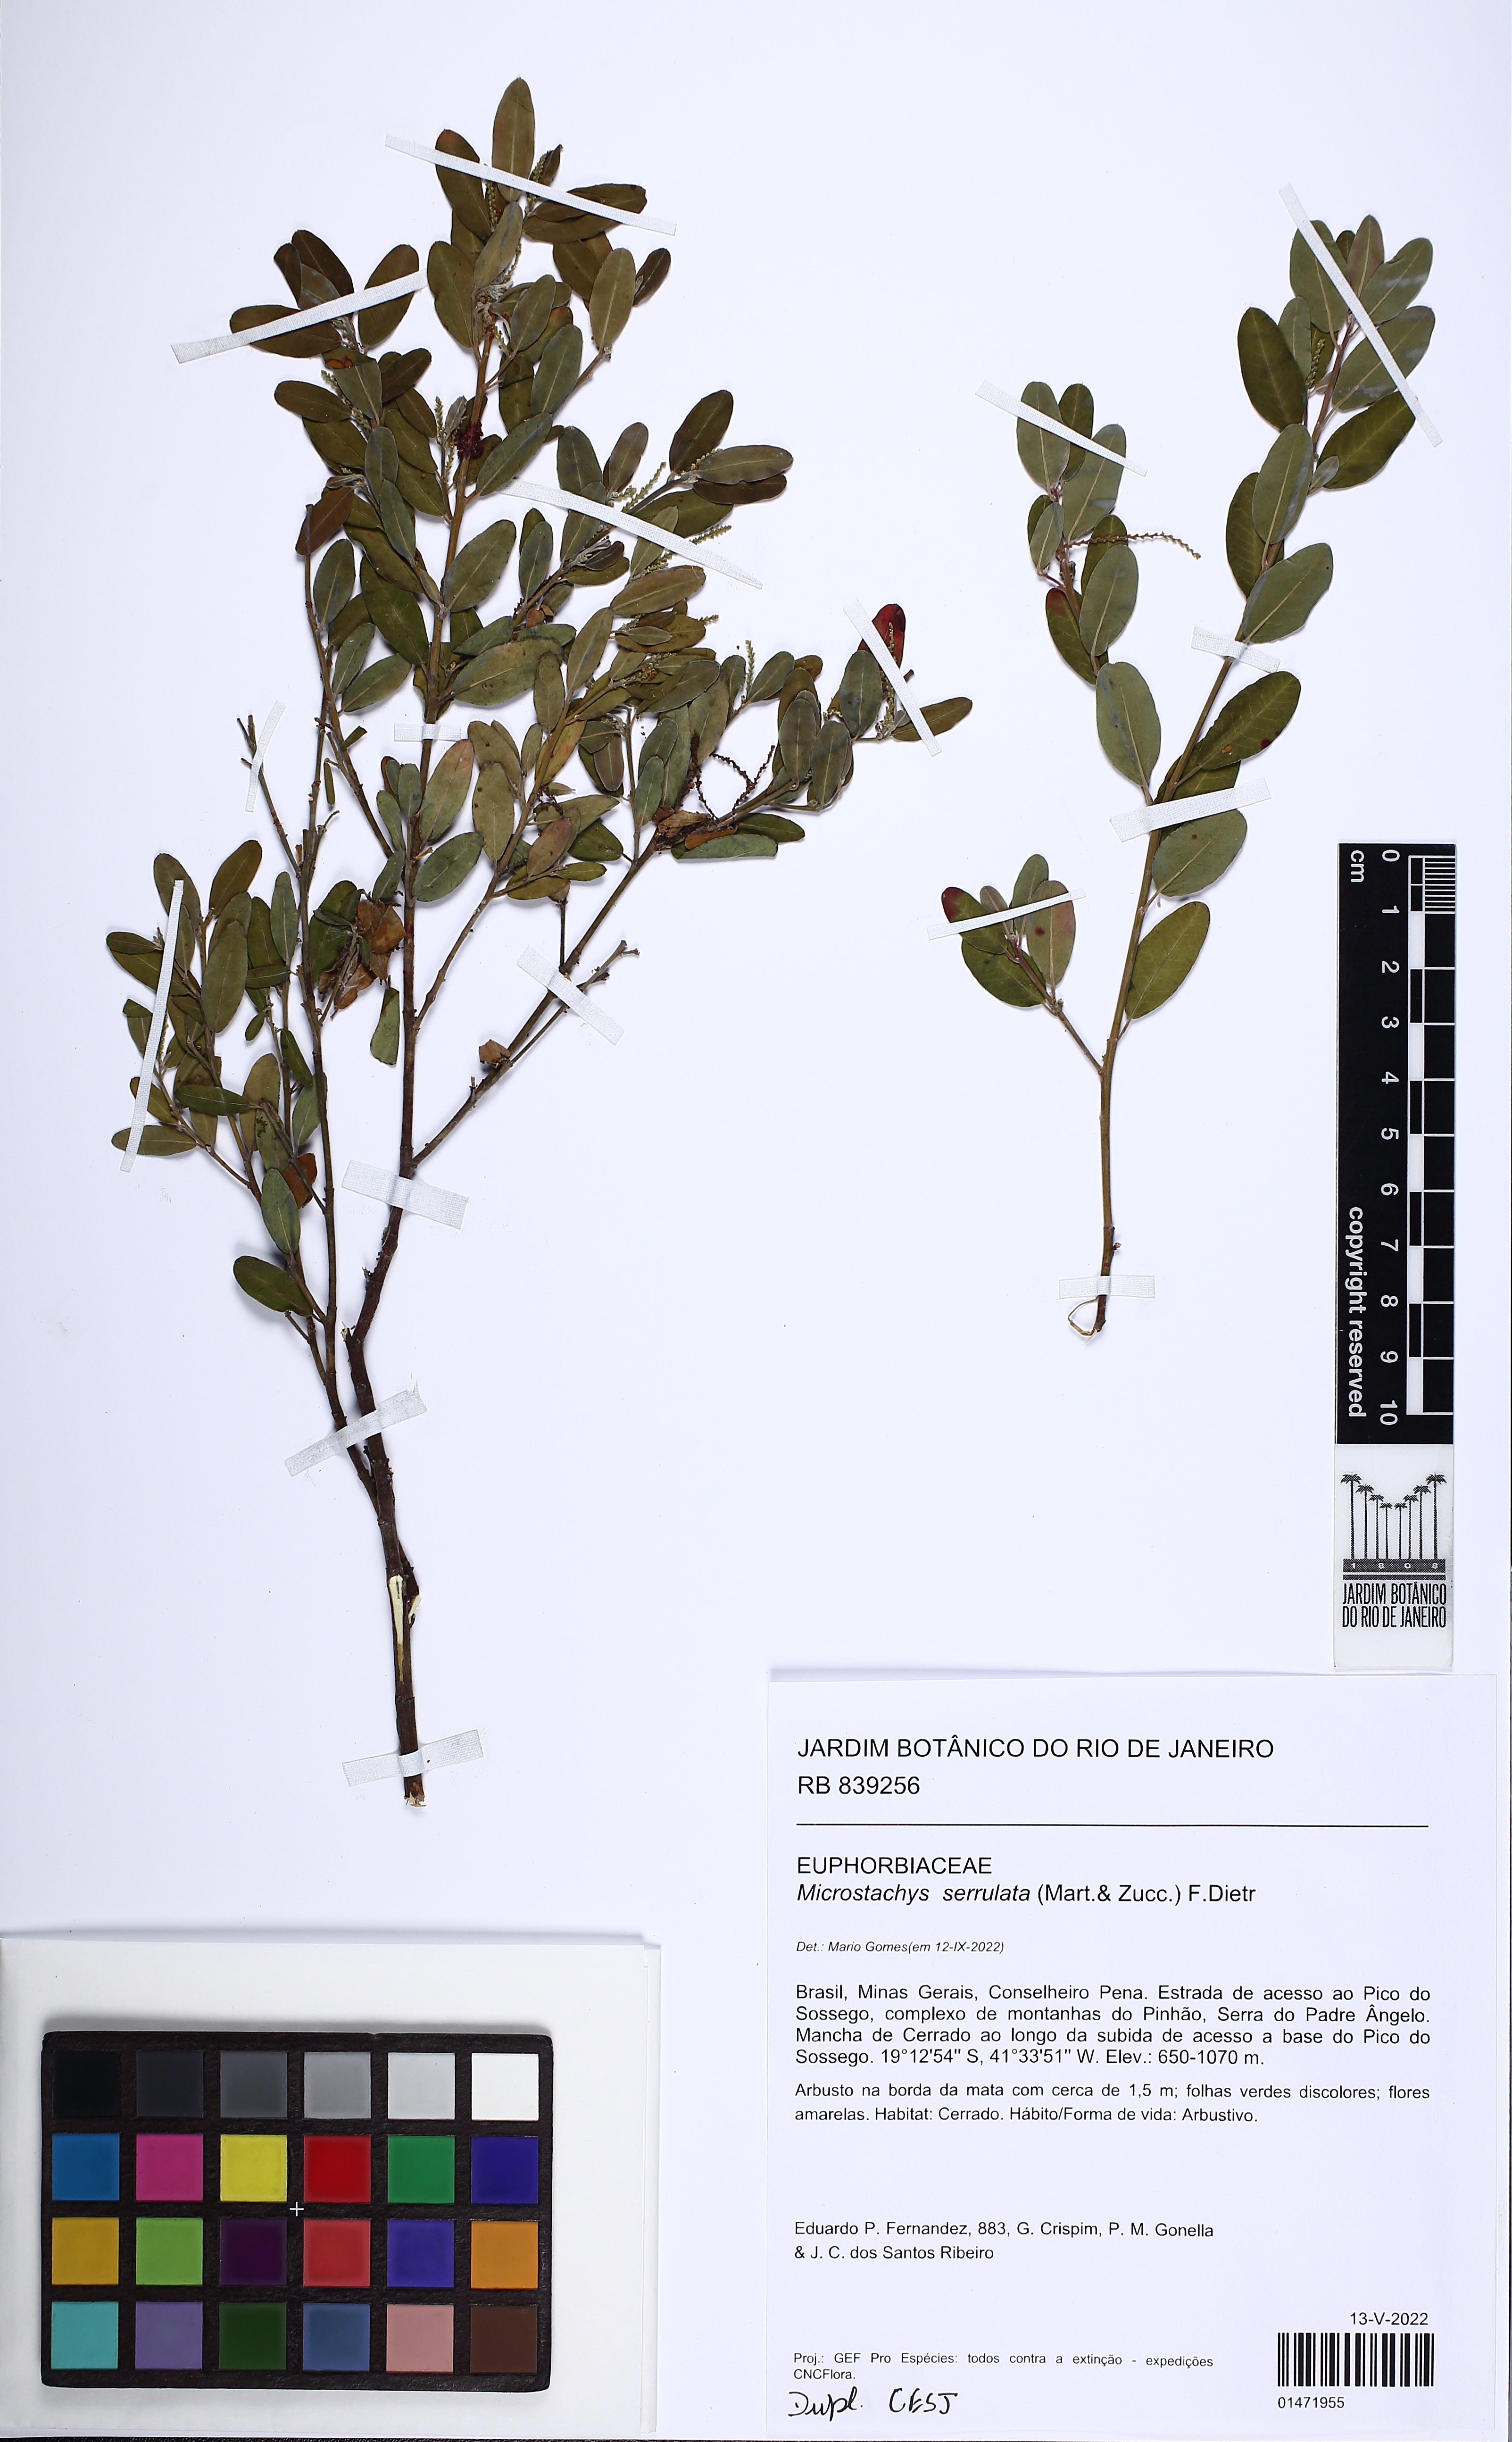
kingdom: Plantae
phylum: Tracheophyta
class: Magnoliopsida
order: Malpighiales
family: Euphorbiaceae
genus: Microstachys
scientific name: Microstachys serrulata
